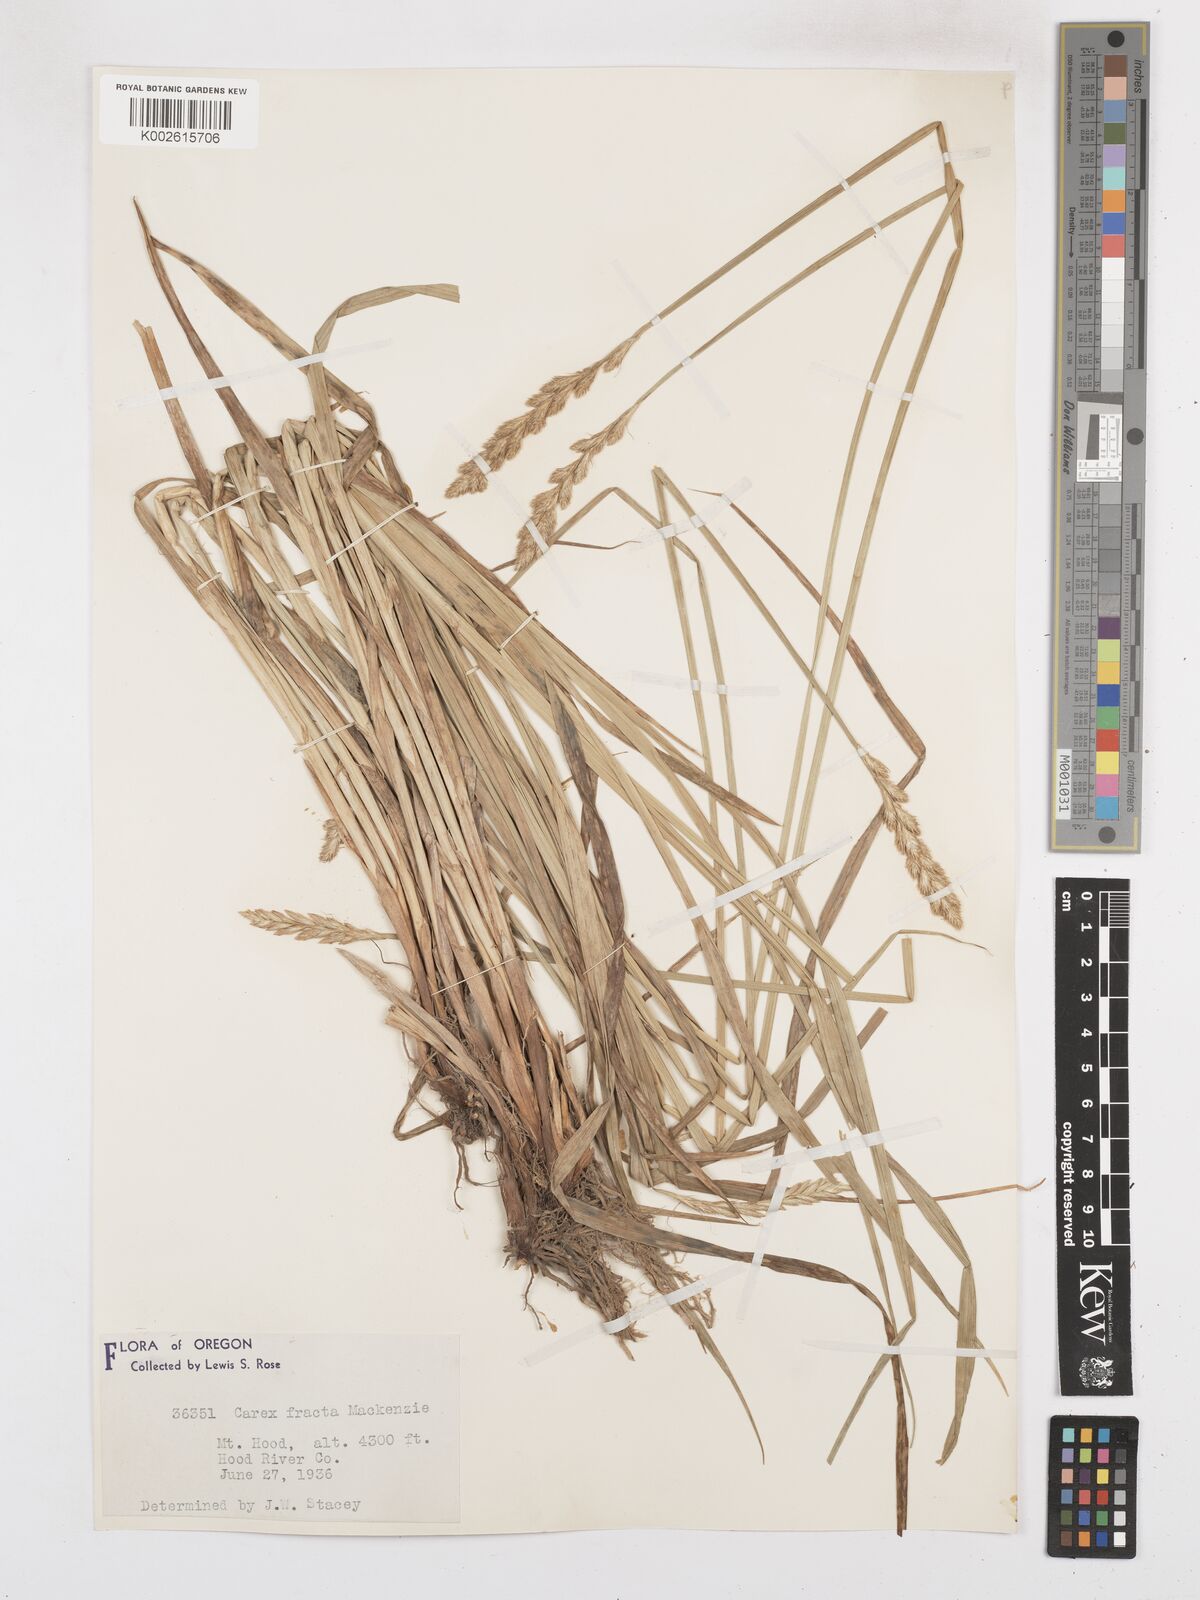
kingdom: Plantae
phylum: Tracheophyta
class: Liliopsida
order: Poales
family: Cyperaceae
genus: Carex
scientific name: Carex fracta
